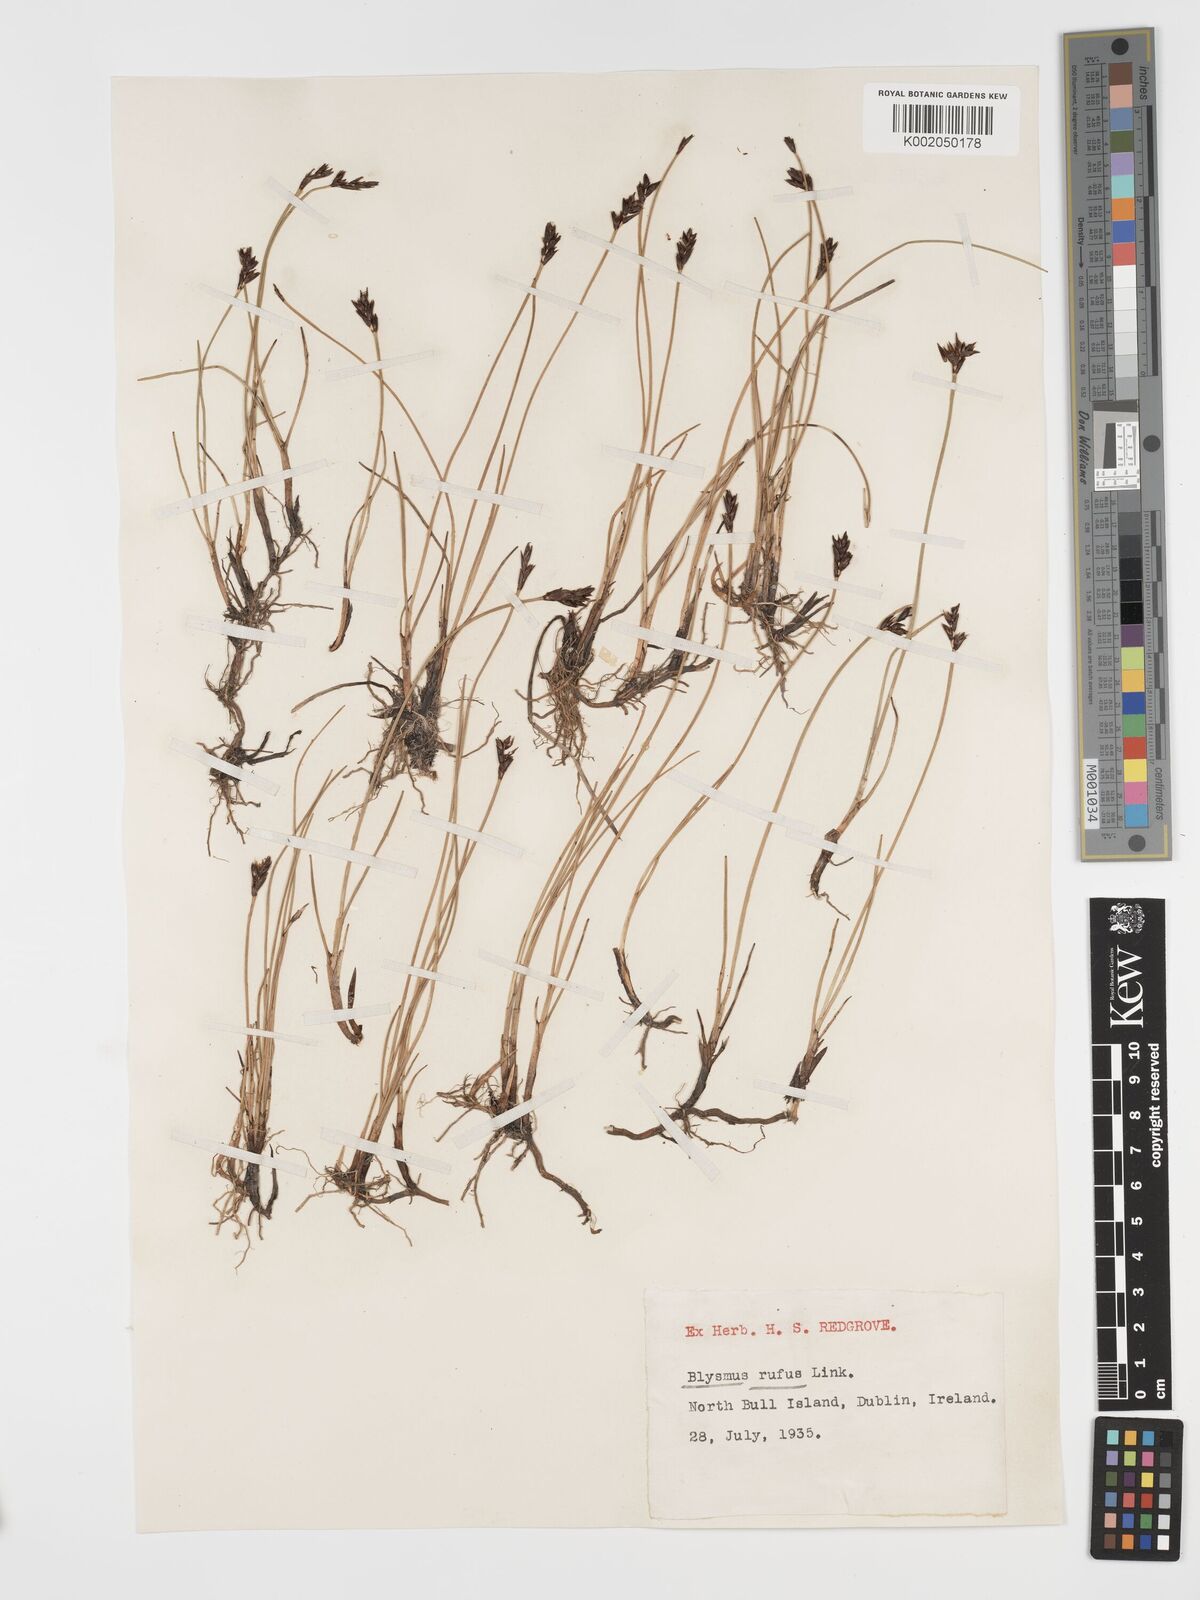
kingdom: Plantae
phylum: Tracheophyta
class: Liliopsida
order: Poales
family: Cyperaceae
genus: Blysmus
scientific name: Blysmus rufus
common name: Saltmarsh flat-sedge
